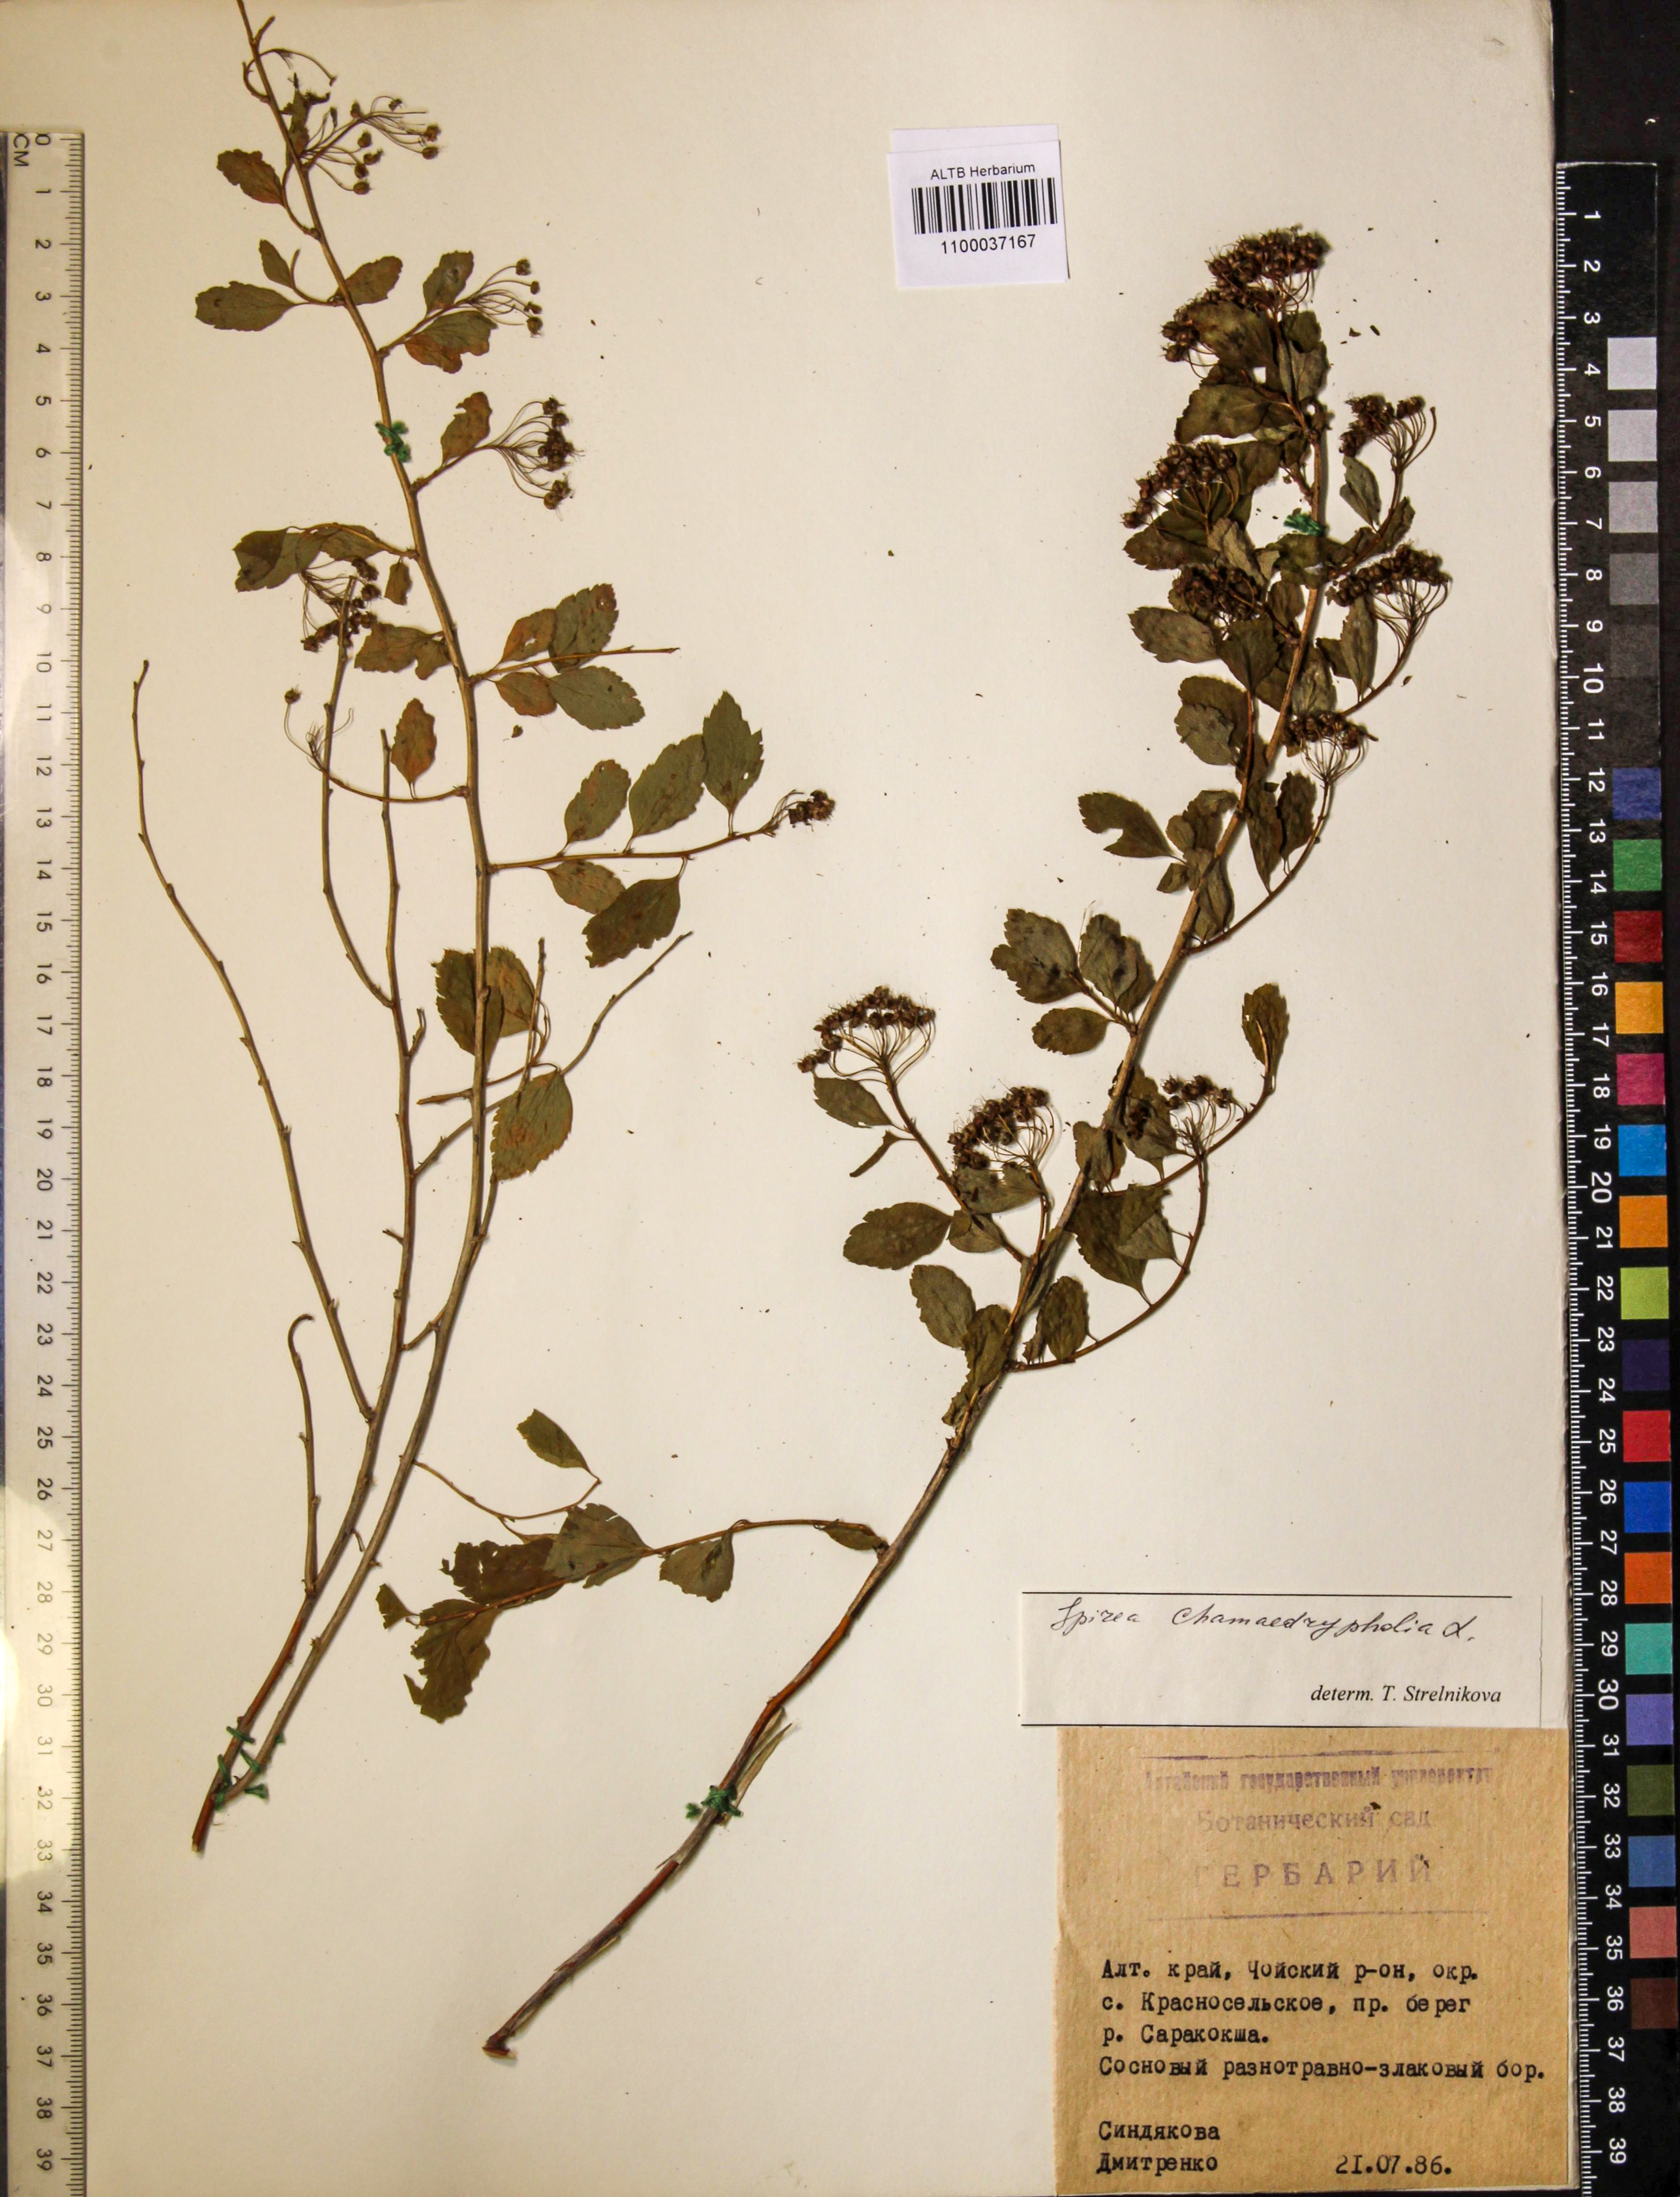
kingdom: Plantae
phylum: Tracheophyta
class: Magnoliopsida
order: Rosales
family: Rosaceae
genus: Spiraea
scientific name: Spiraea chamaedryfolia
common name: Elm-leaved spiraea
